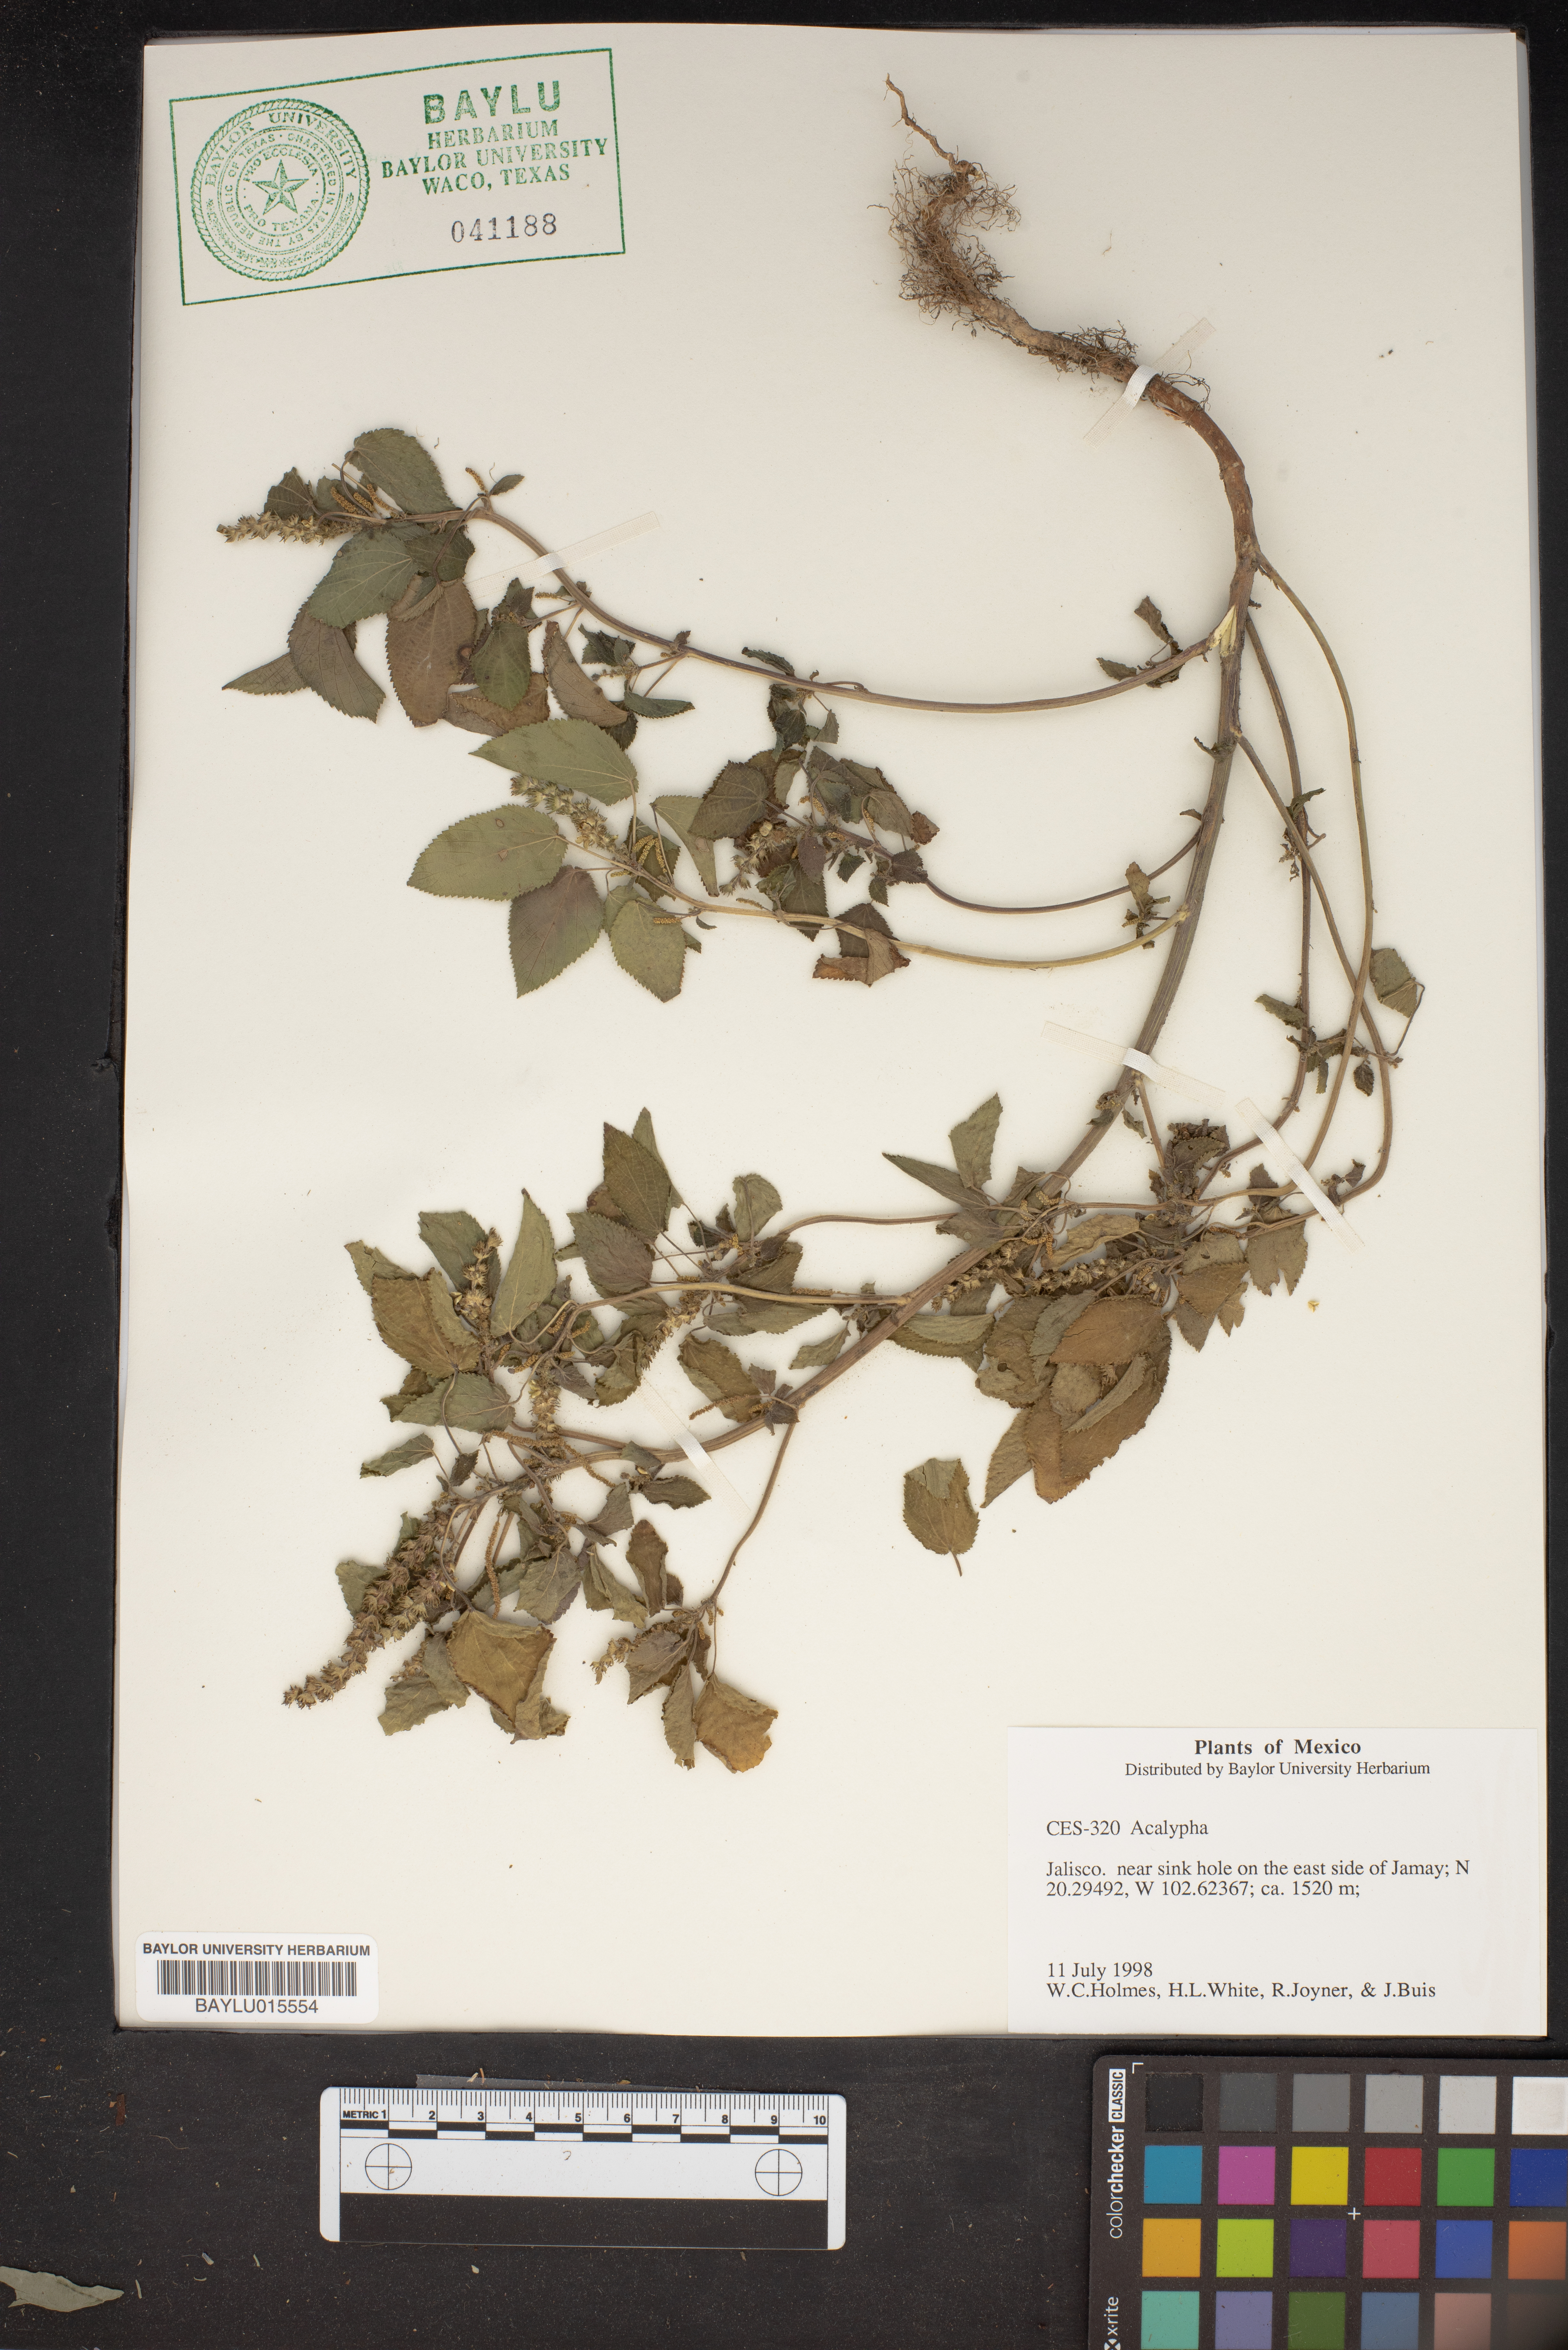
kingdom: Plantae
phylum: Tracheophyta
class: Magnoliopsida
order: Malpighiales
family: Euphorbiaceae
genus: Acalypha
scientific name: Acalypha
